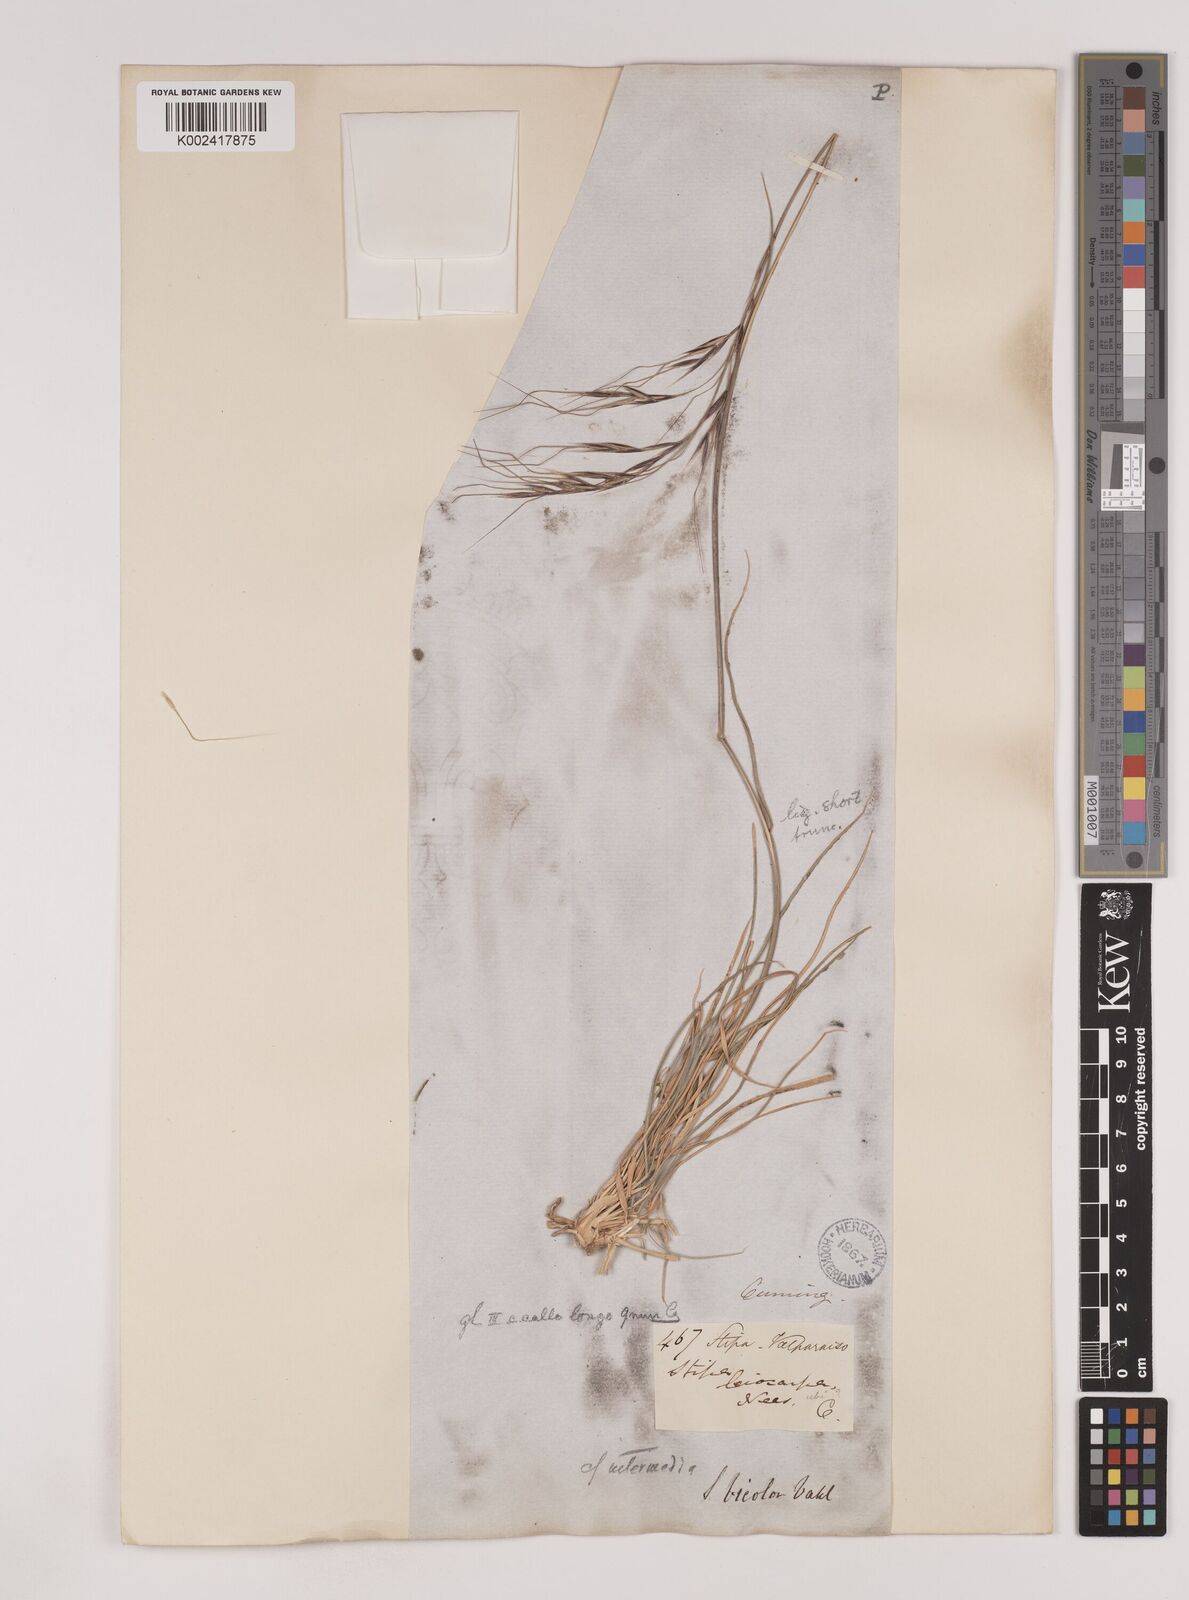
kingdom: Plantae
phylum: Tracheophyta
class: Liliopsida
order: Poales
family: Poaceae
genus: Nassella
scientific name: Nassella neesiana
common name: American needle-grass
